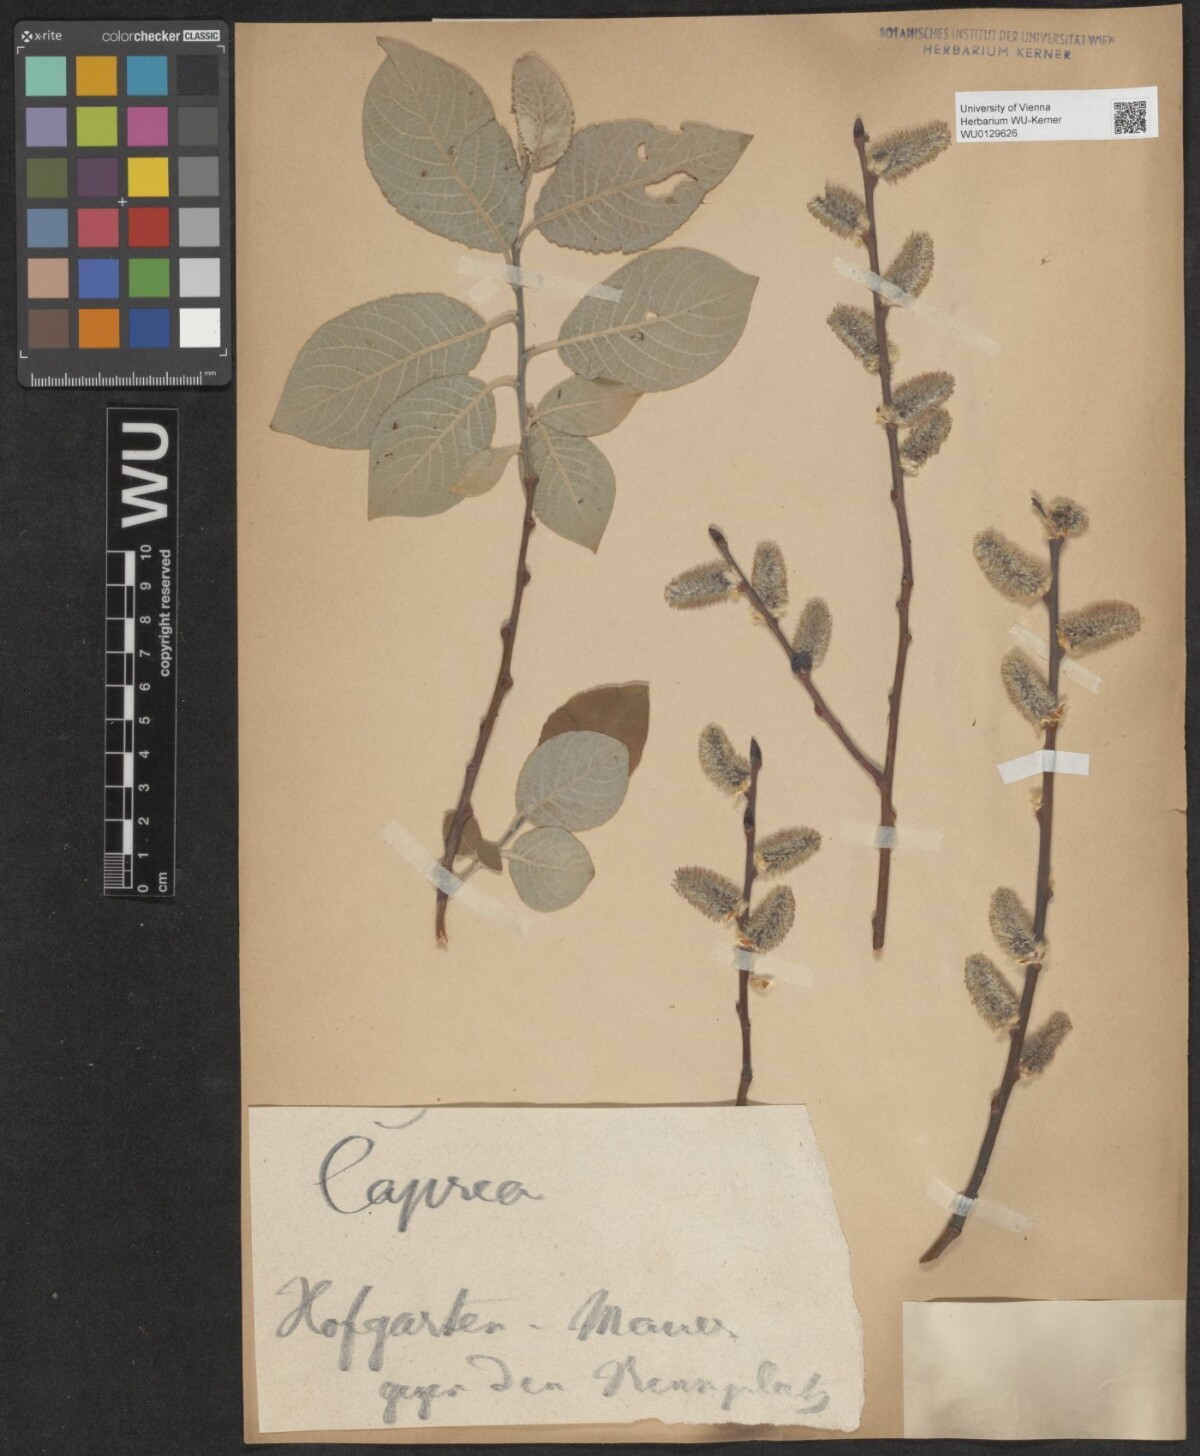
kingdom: Plantae
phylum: Tracheophyta
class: Magnoliopsida
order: Malpighiales
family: Salicaceae
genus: Salix
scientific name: Salix caprea
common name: Goat willow
